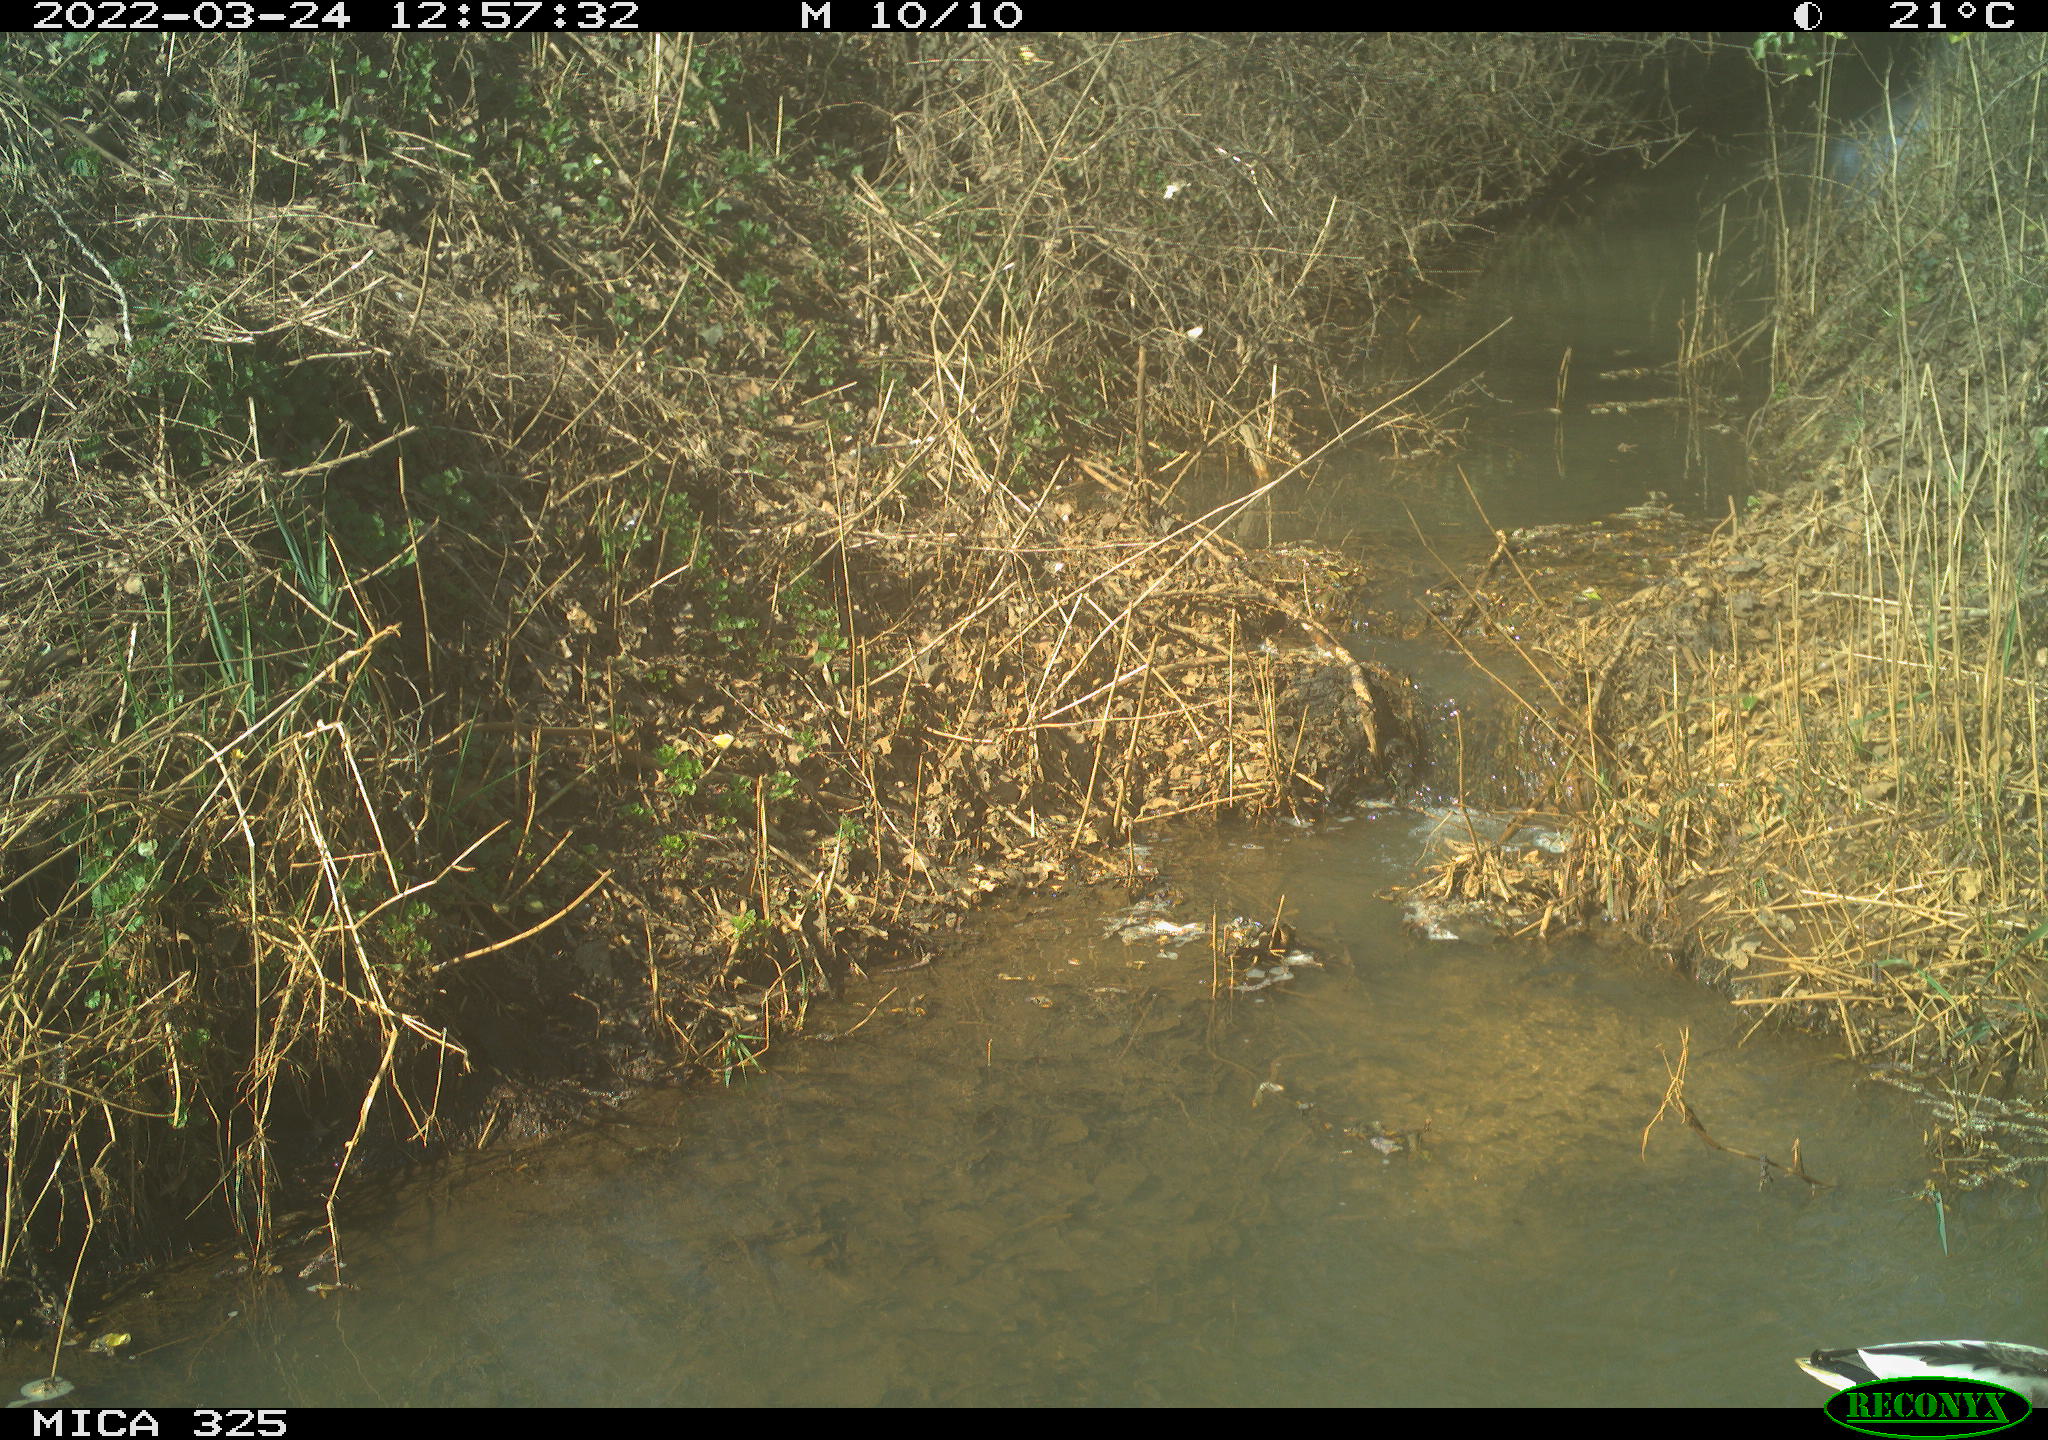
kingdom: Animalia
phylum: Chordata
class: Aves
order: Anseriformes
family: Anatidae
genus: Anas
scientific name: Anas platyrhynchos
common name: Mallard
